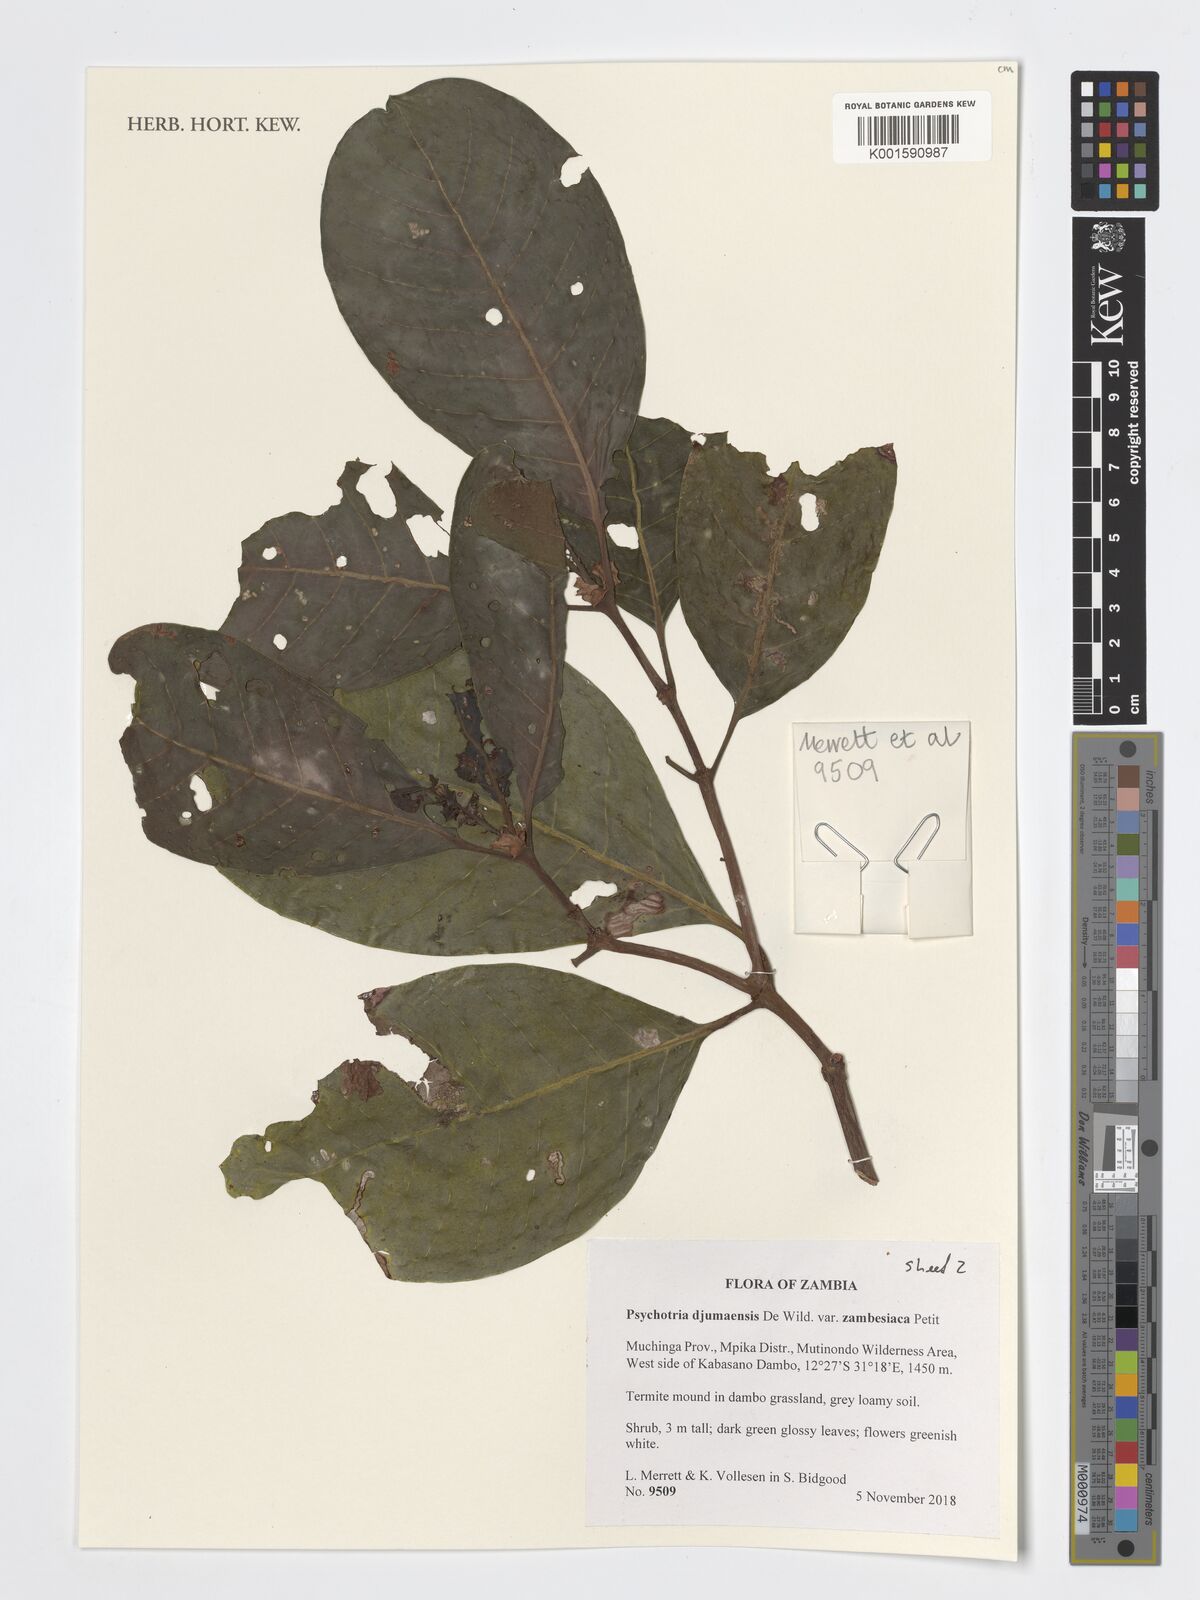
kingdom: Plantae
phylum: Tracheophyta
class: Magnoliopsida
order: Gentianales
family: Rubiaceae
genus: Psychotria
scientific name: Psychotria djumaensis
